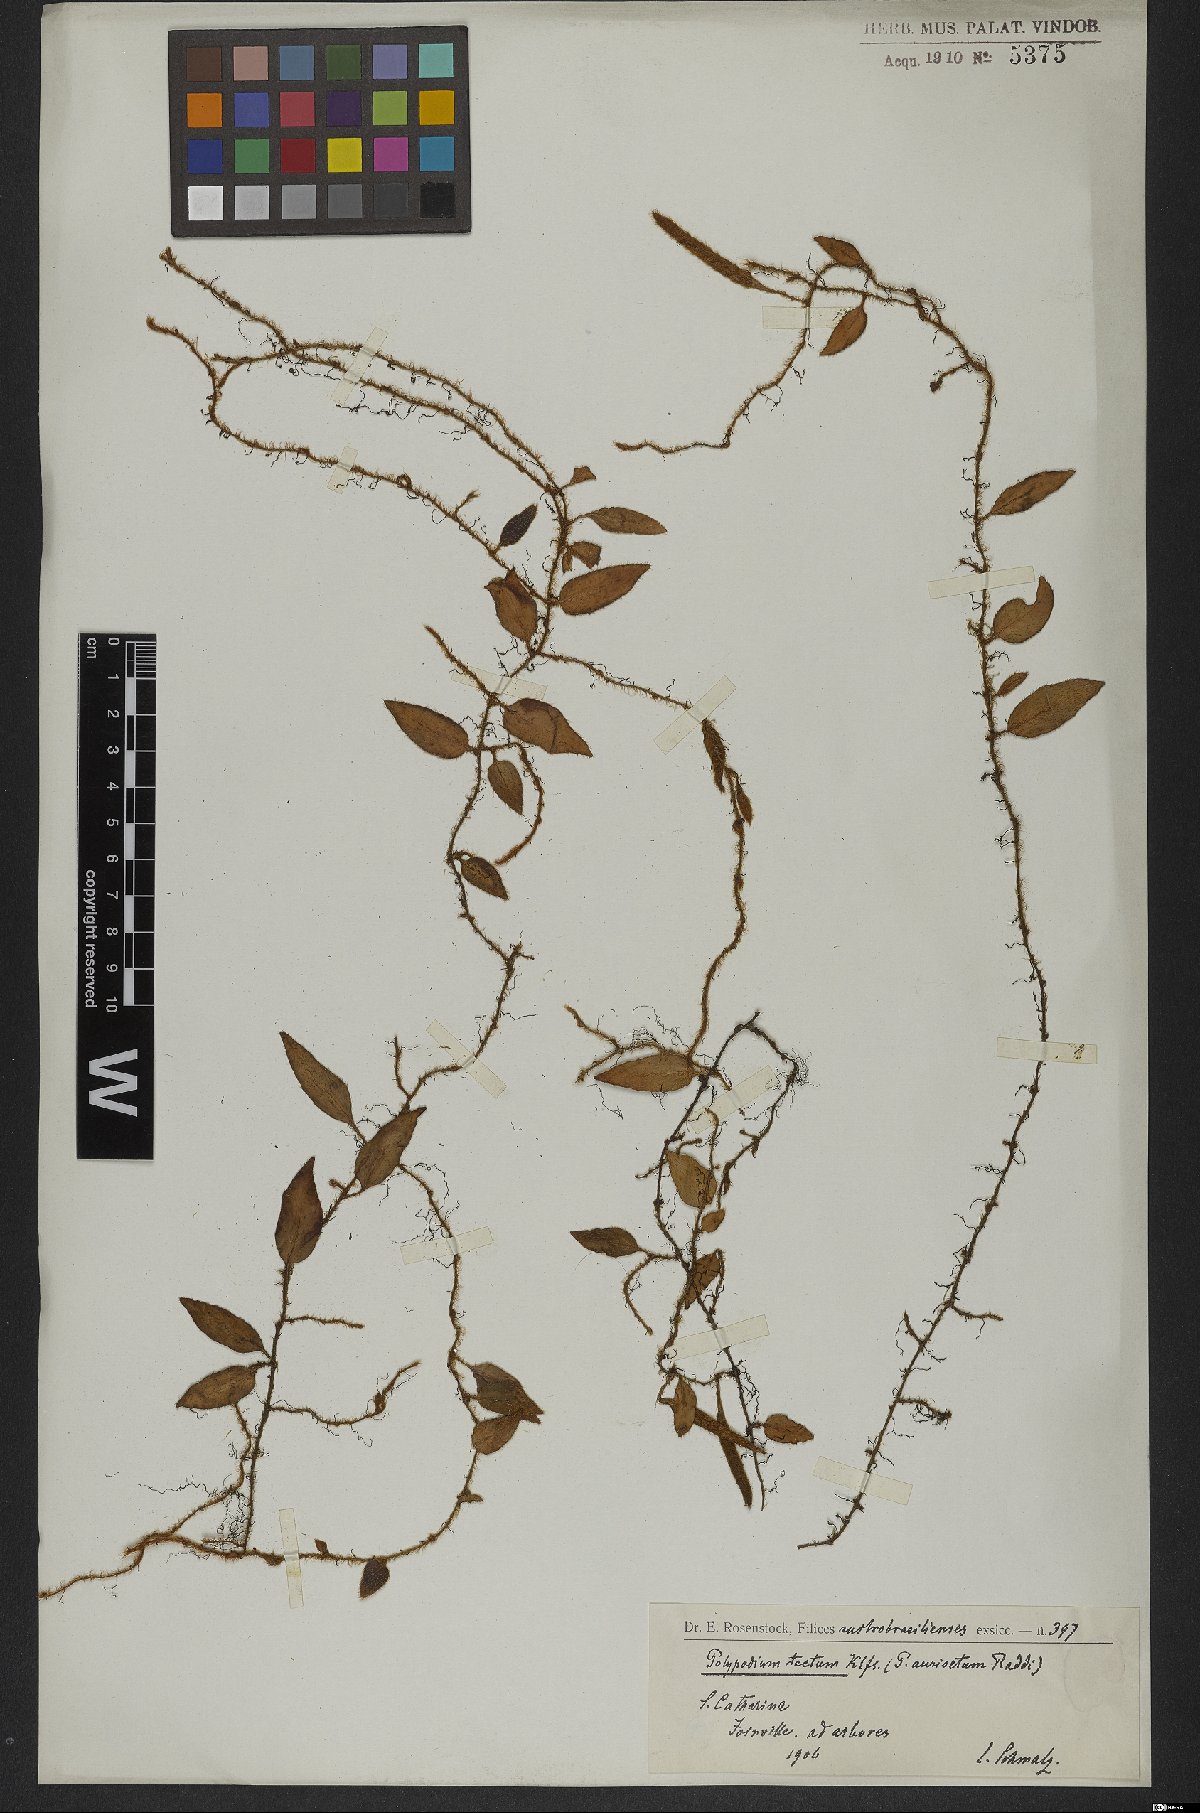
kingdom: Plantae
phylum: Tracheophyta
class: Polypodiopsida
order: Polypodiales
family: Polypodiaceae
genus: Microgramma
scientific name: Microgramma tecta
